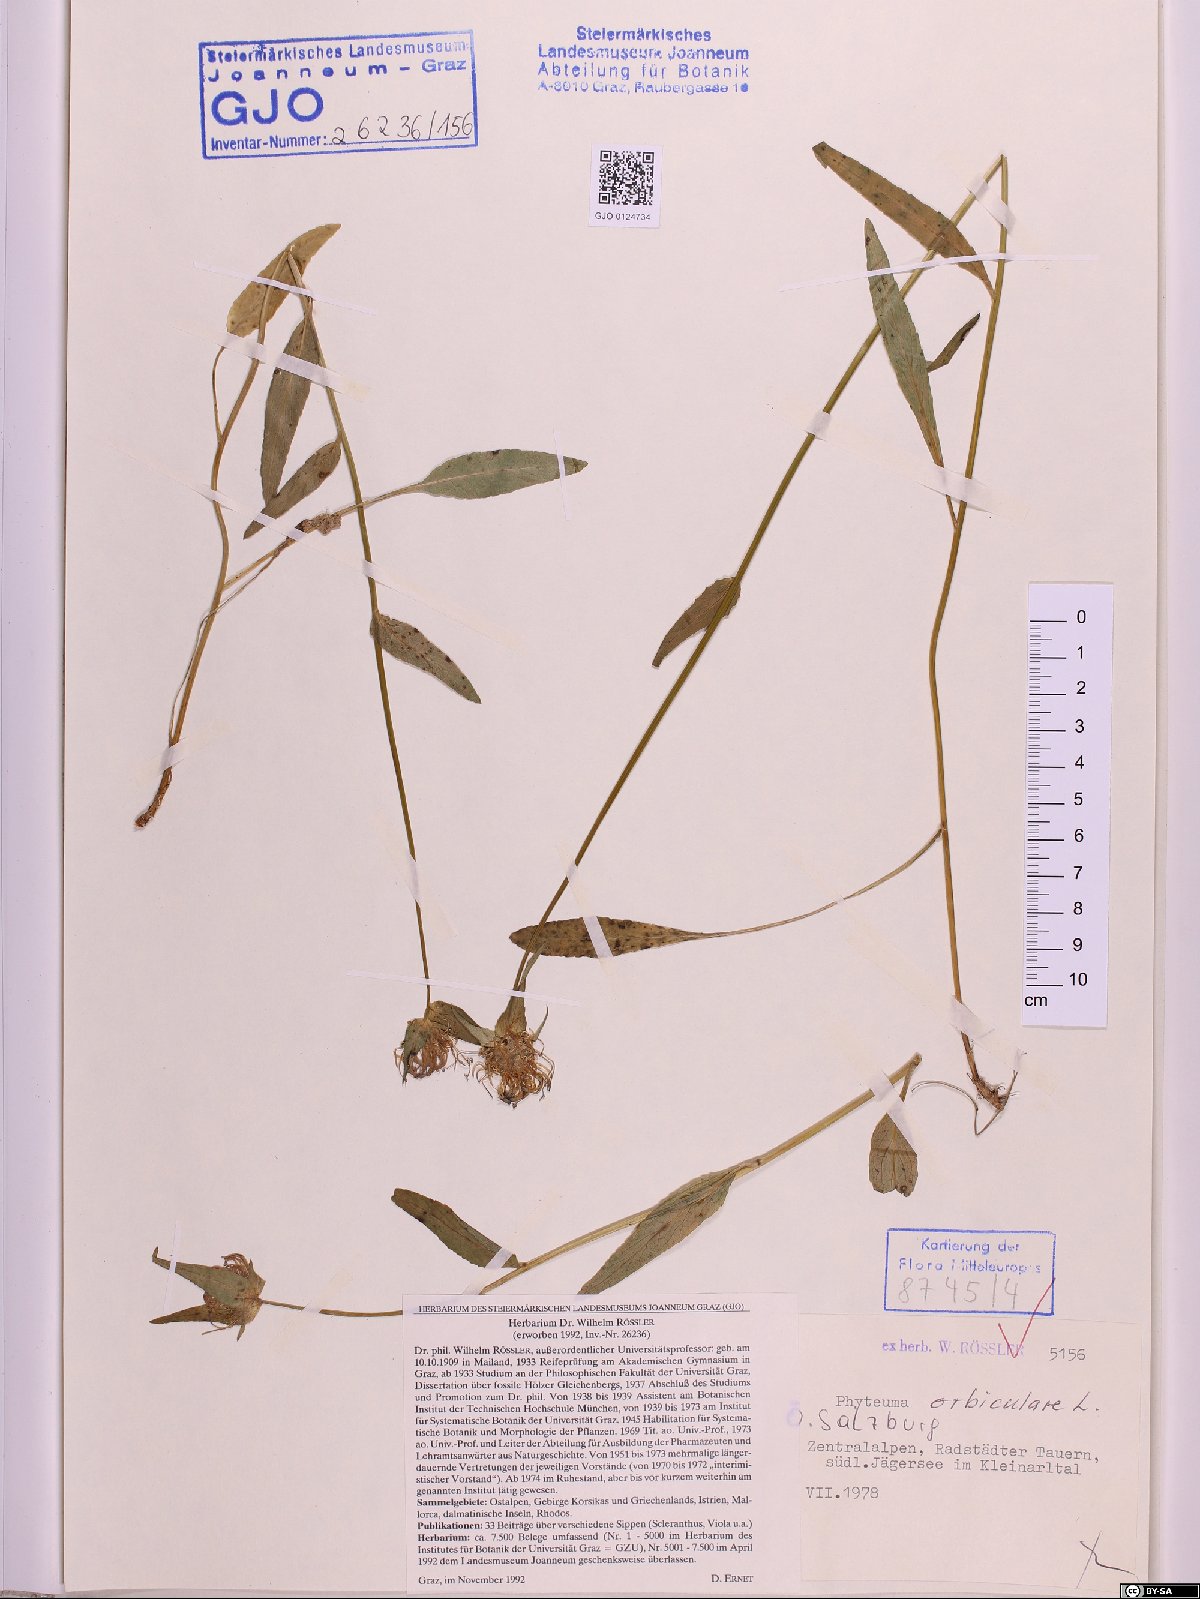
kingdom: Plantae
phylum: Tracheophyta
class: Magnoliopsida
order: Asterales
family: Campanulaceae
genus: Phyteuma
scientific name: Phyteuma orbiculare
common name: Round-headed rampion
